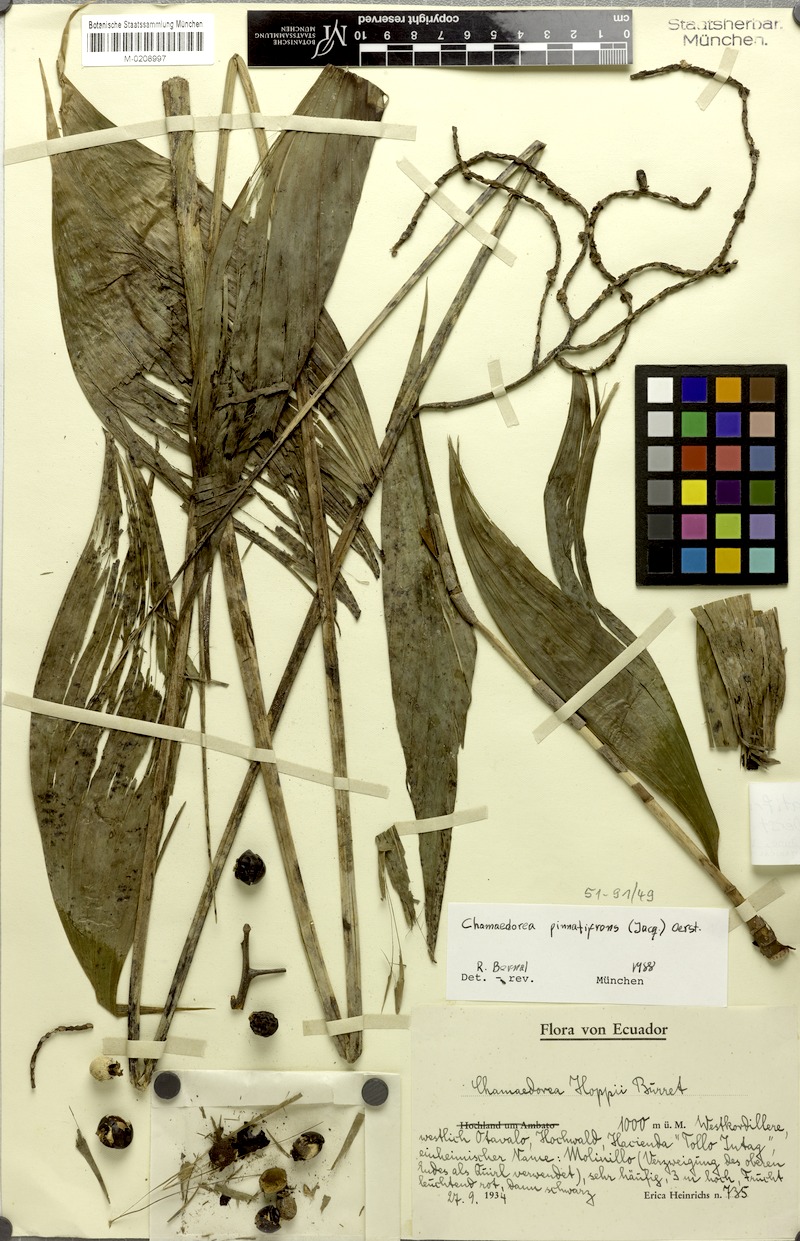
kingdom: Plantae
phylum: Tracheophyta
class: Liliopsida
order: Arecales
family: Arecaceae
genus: Chamaedorea
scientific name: Chamaedorea pinnatifrons
